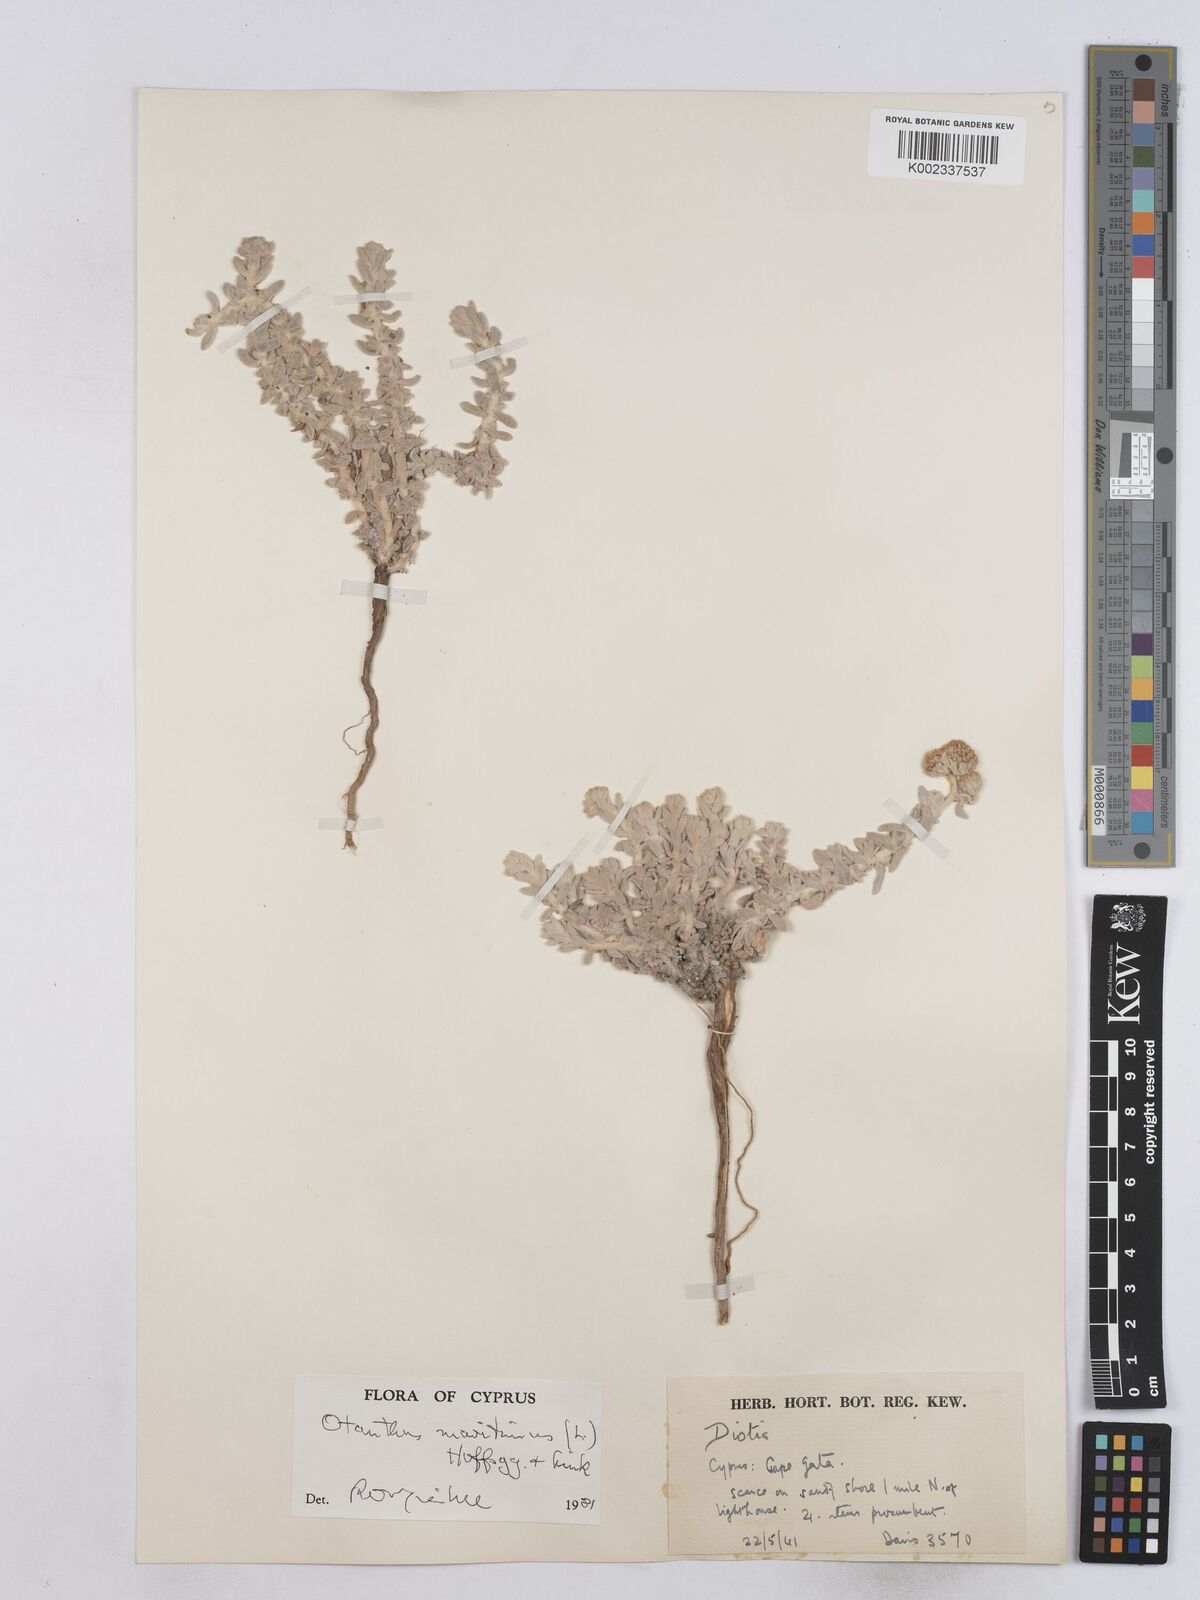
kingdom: Plantae
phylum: Tracheophyta
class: Magnoliopsida
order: Asterales
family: Asteraceae
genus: Achillea
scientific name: Achillea maritima
